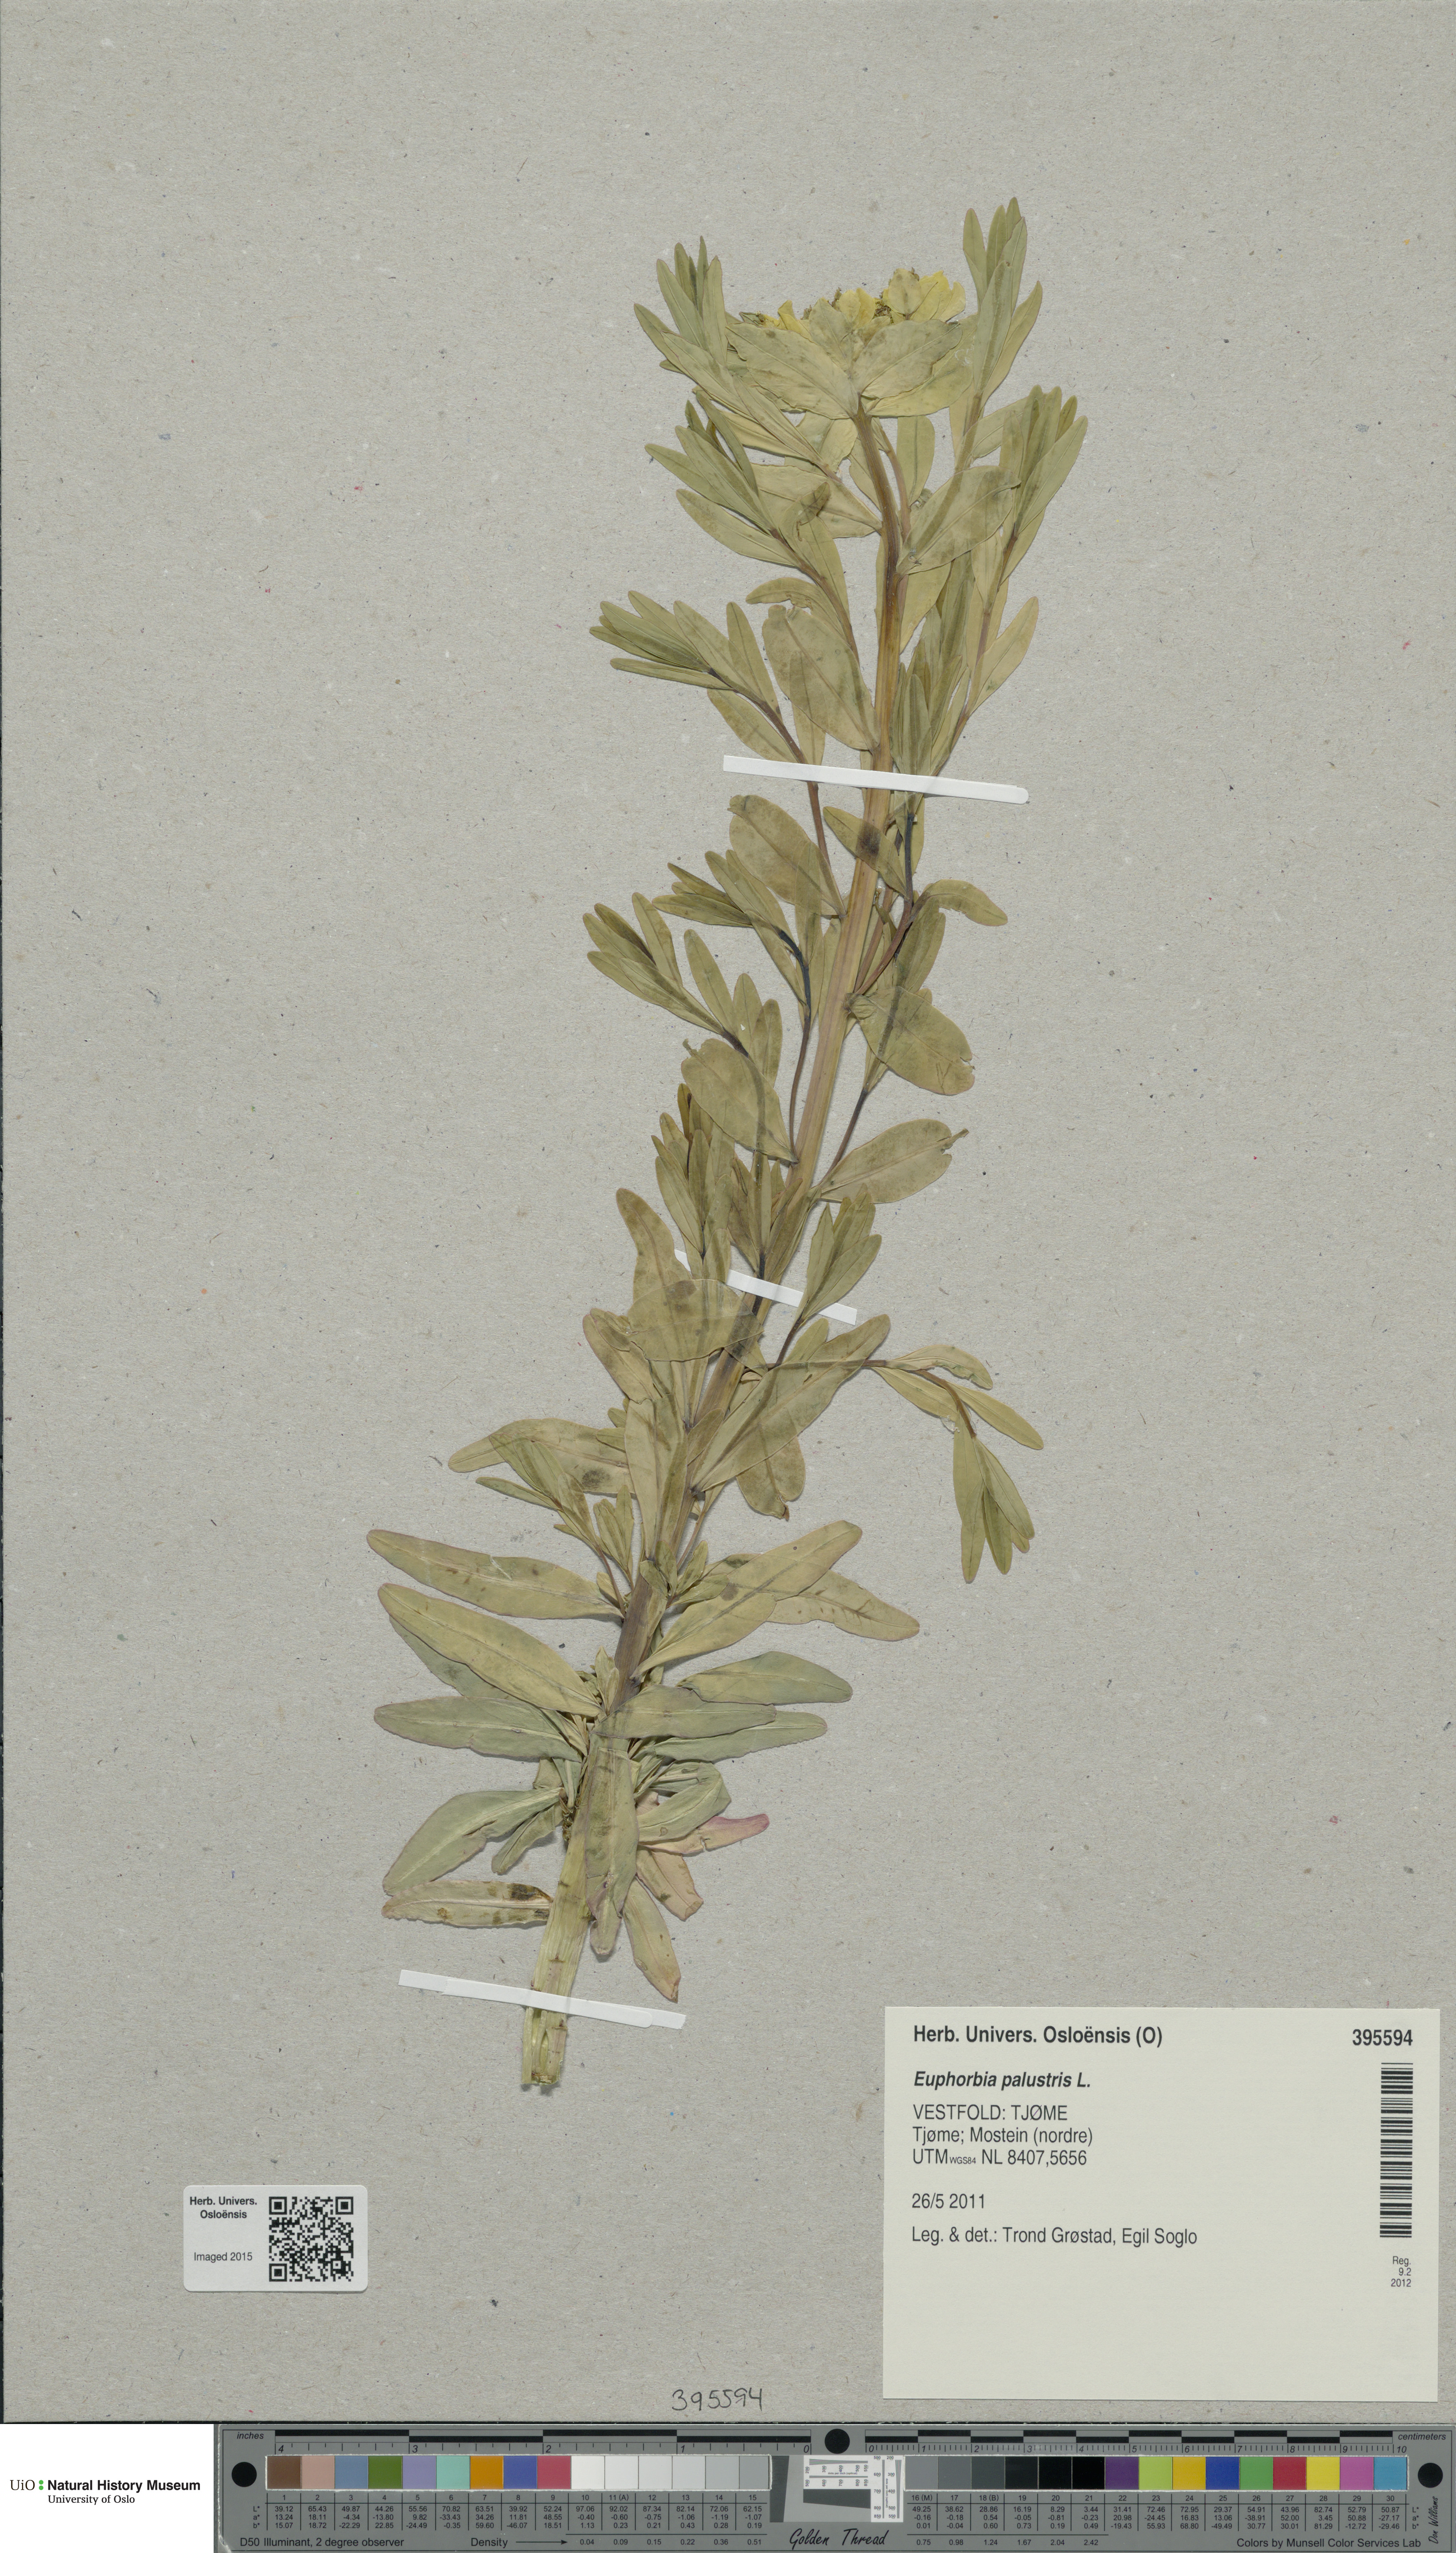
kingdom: Plantae
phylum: Tracheophyta
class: Magnoliopsida
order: Malpighiales
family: Euphorbiaceae
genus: Euphorbia
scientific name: Euphorbia palustris
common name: Marsh spurge
